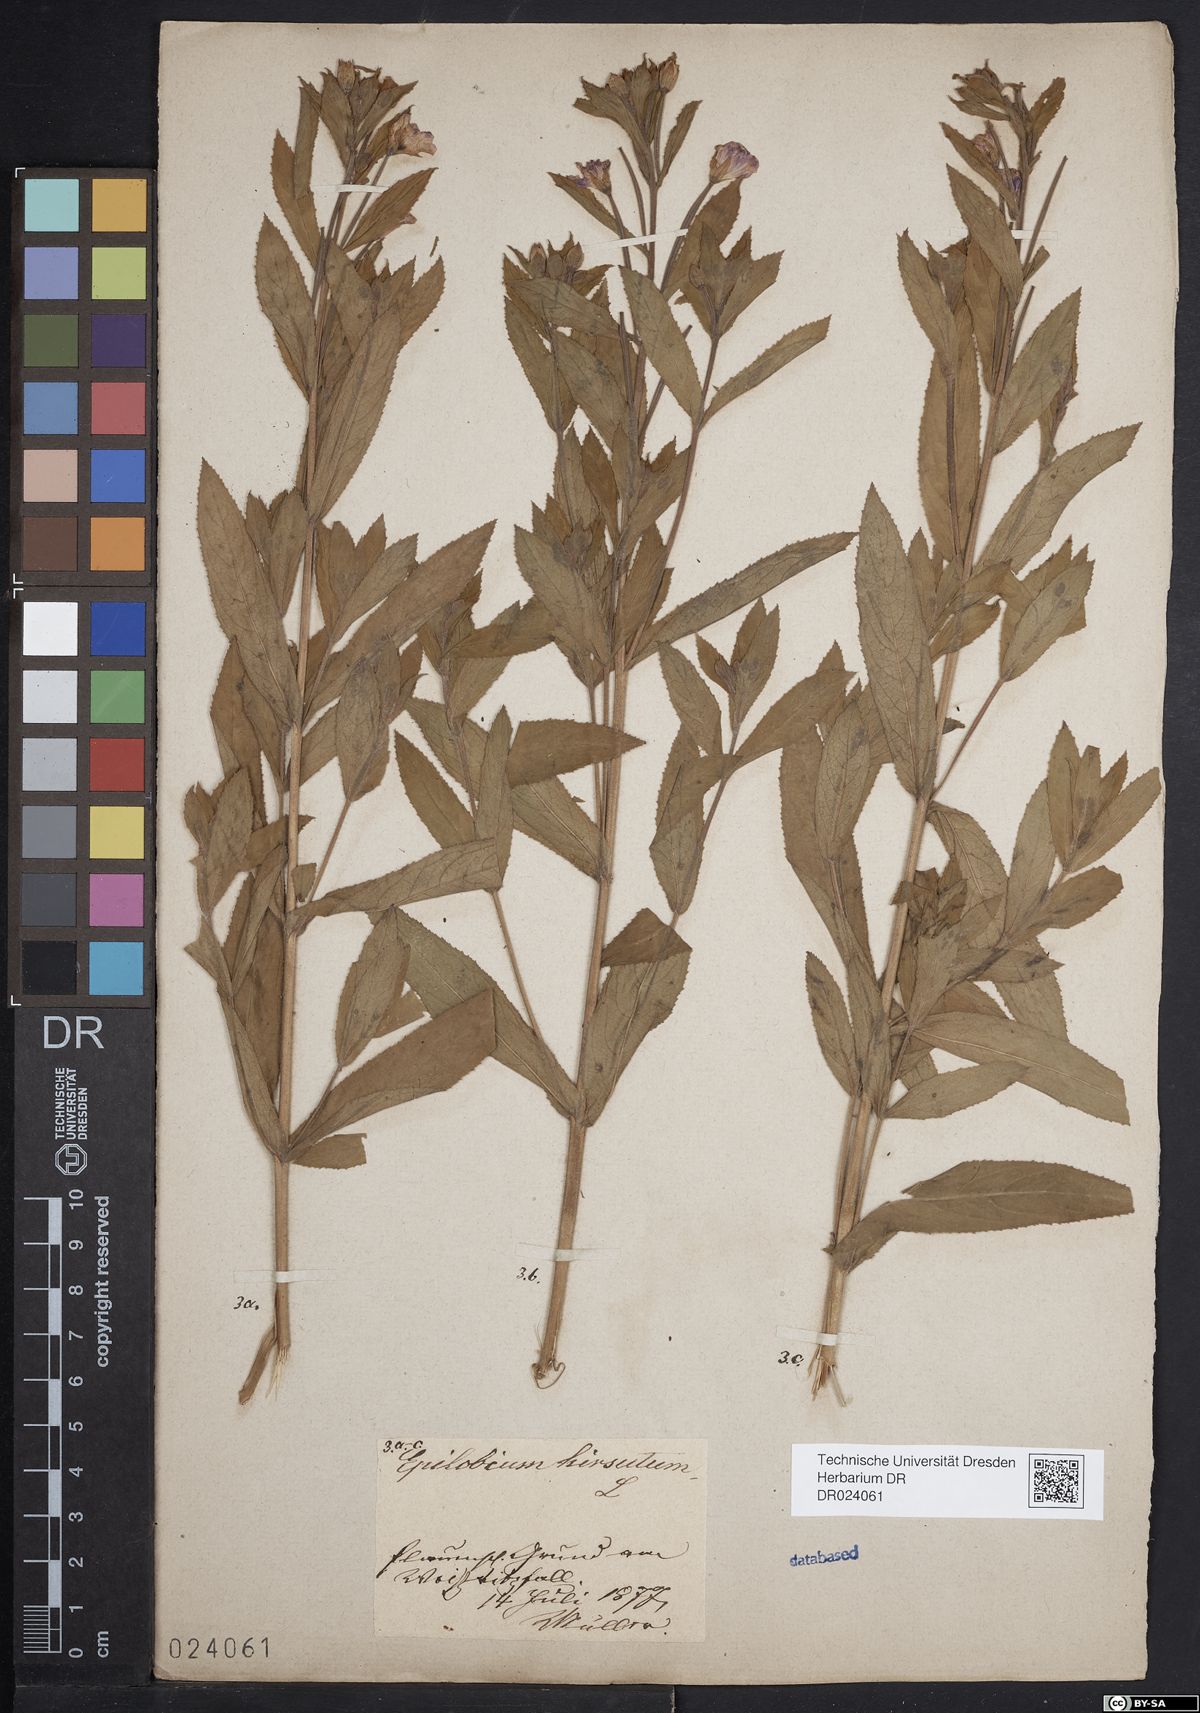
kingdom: Plantae
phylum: Tracheophyta
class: Magnoliopsida
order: Myrtales
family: Onagraceae
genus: Epilobium
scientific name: Epilobium hirsutum
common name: Great willowherb
